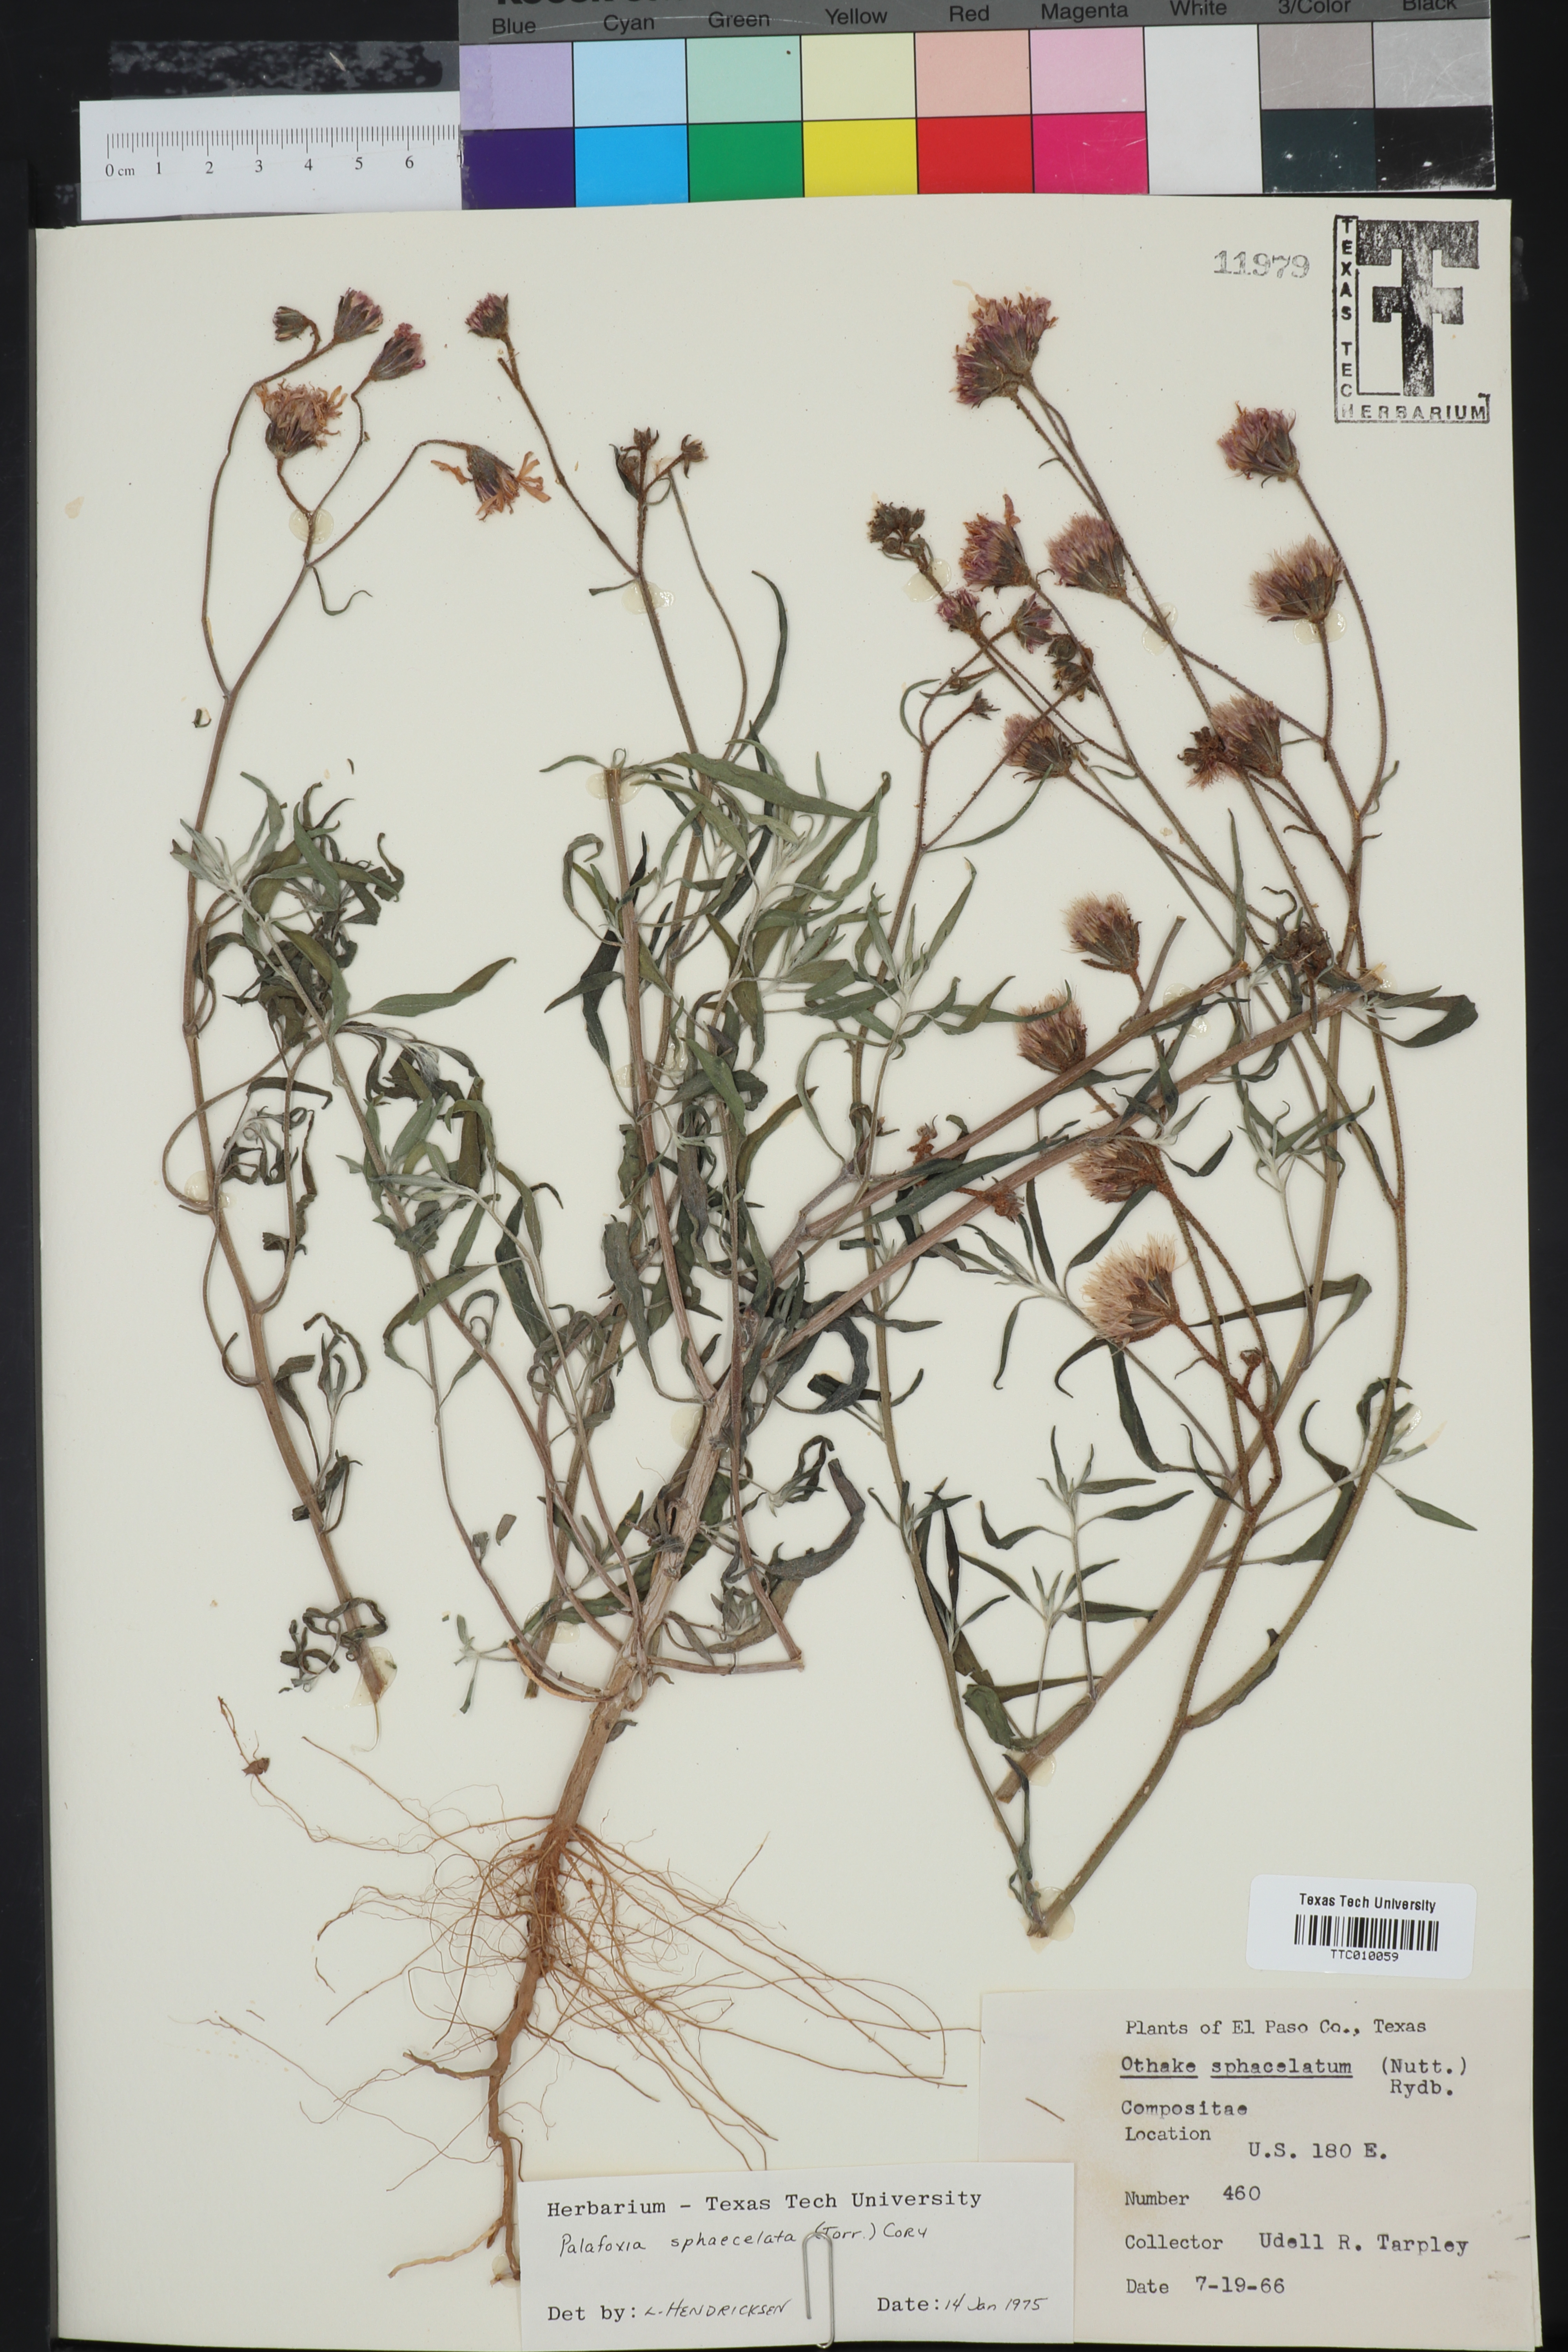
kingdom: Plantae
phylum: Tracheophyta
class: Magnoliopsida
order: Asterales
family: Asteraceae
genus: Palafoxia
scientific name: Palafoxia sphacelata
